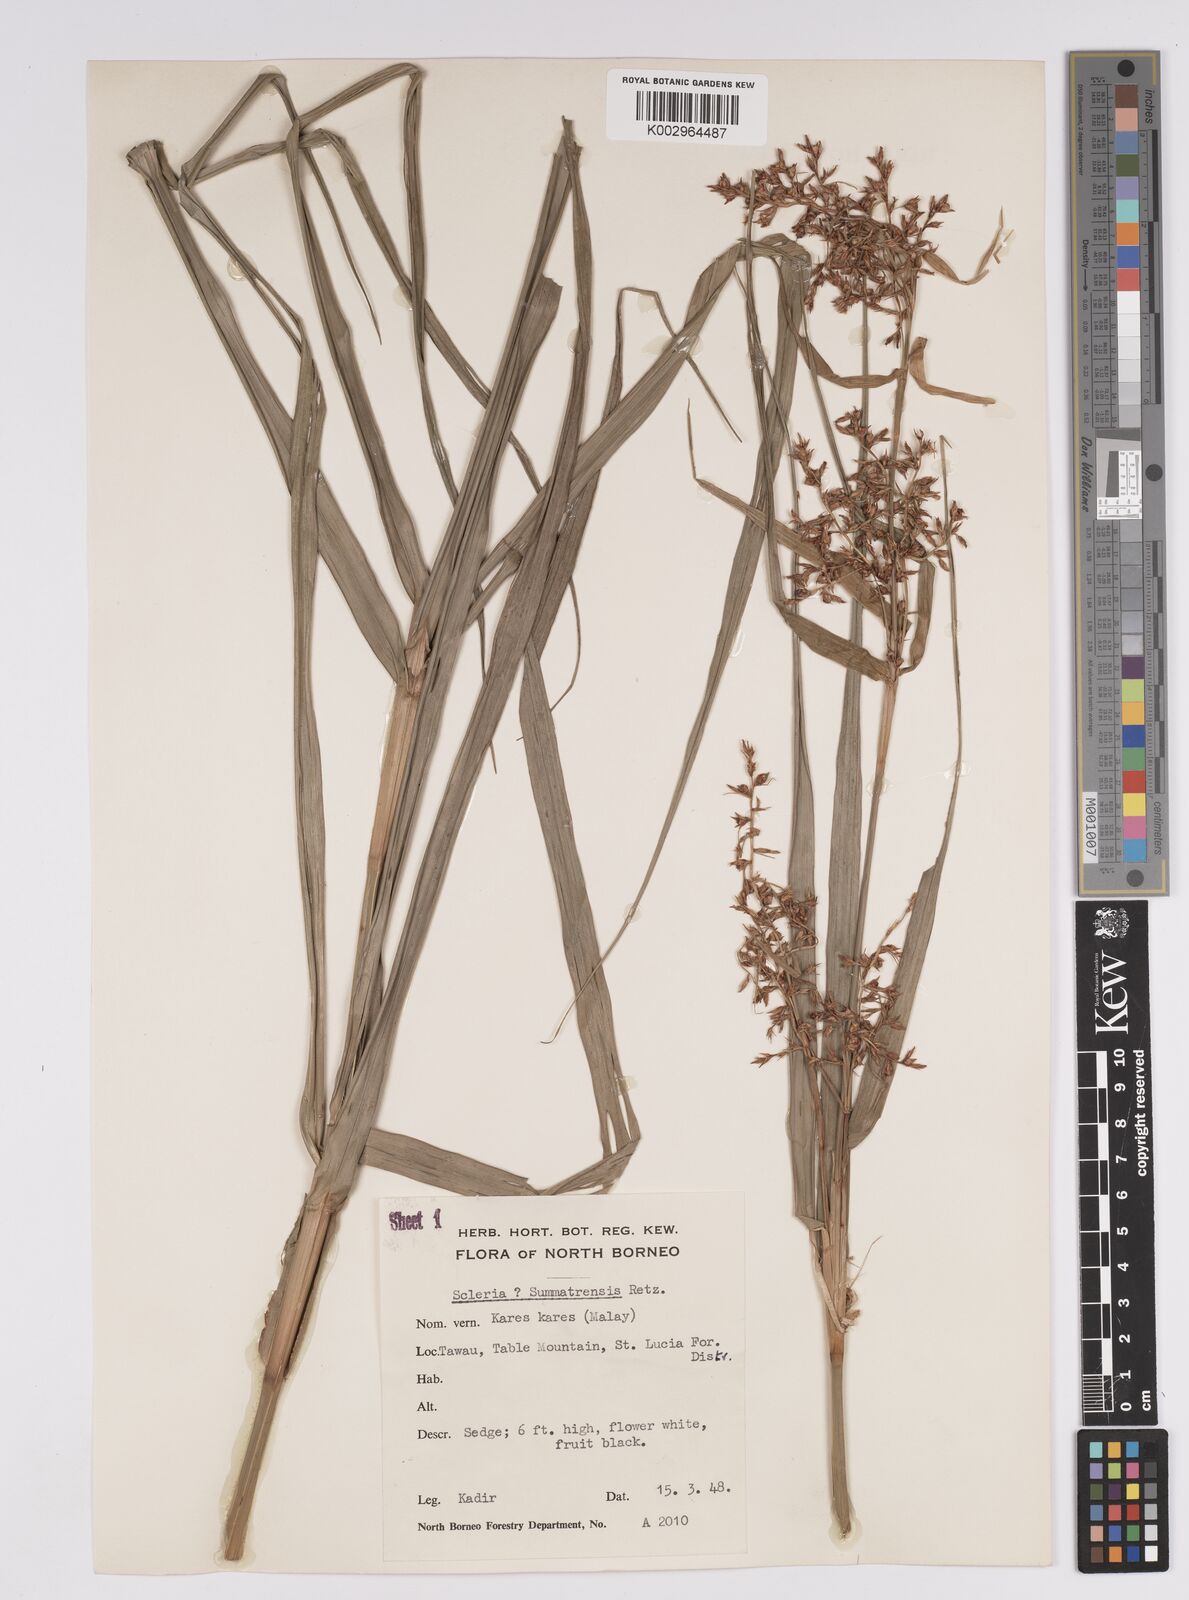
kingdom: Plantae
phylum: Tracheophyta
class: Liliopsida
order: Poales
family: Cyperaceae
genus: Scleria
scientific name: Scleria sumatrensis
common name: Sumatran scleria
